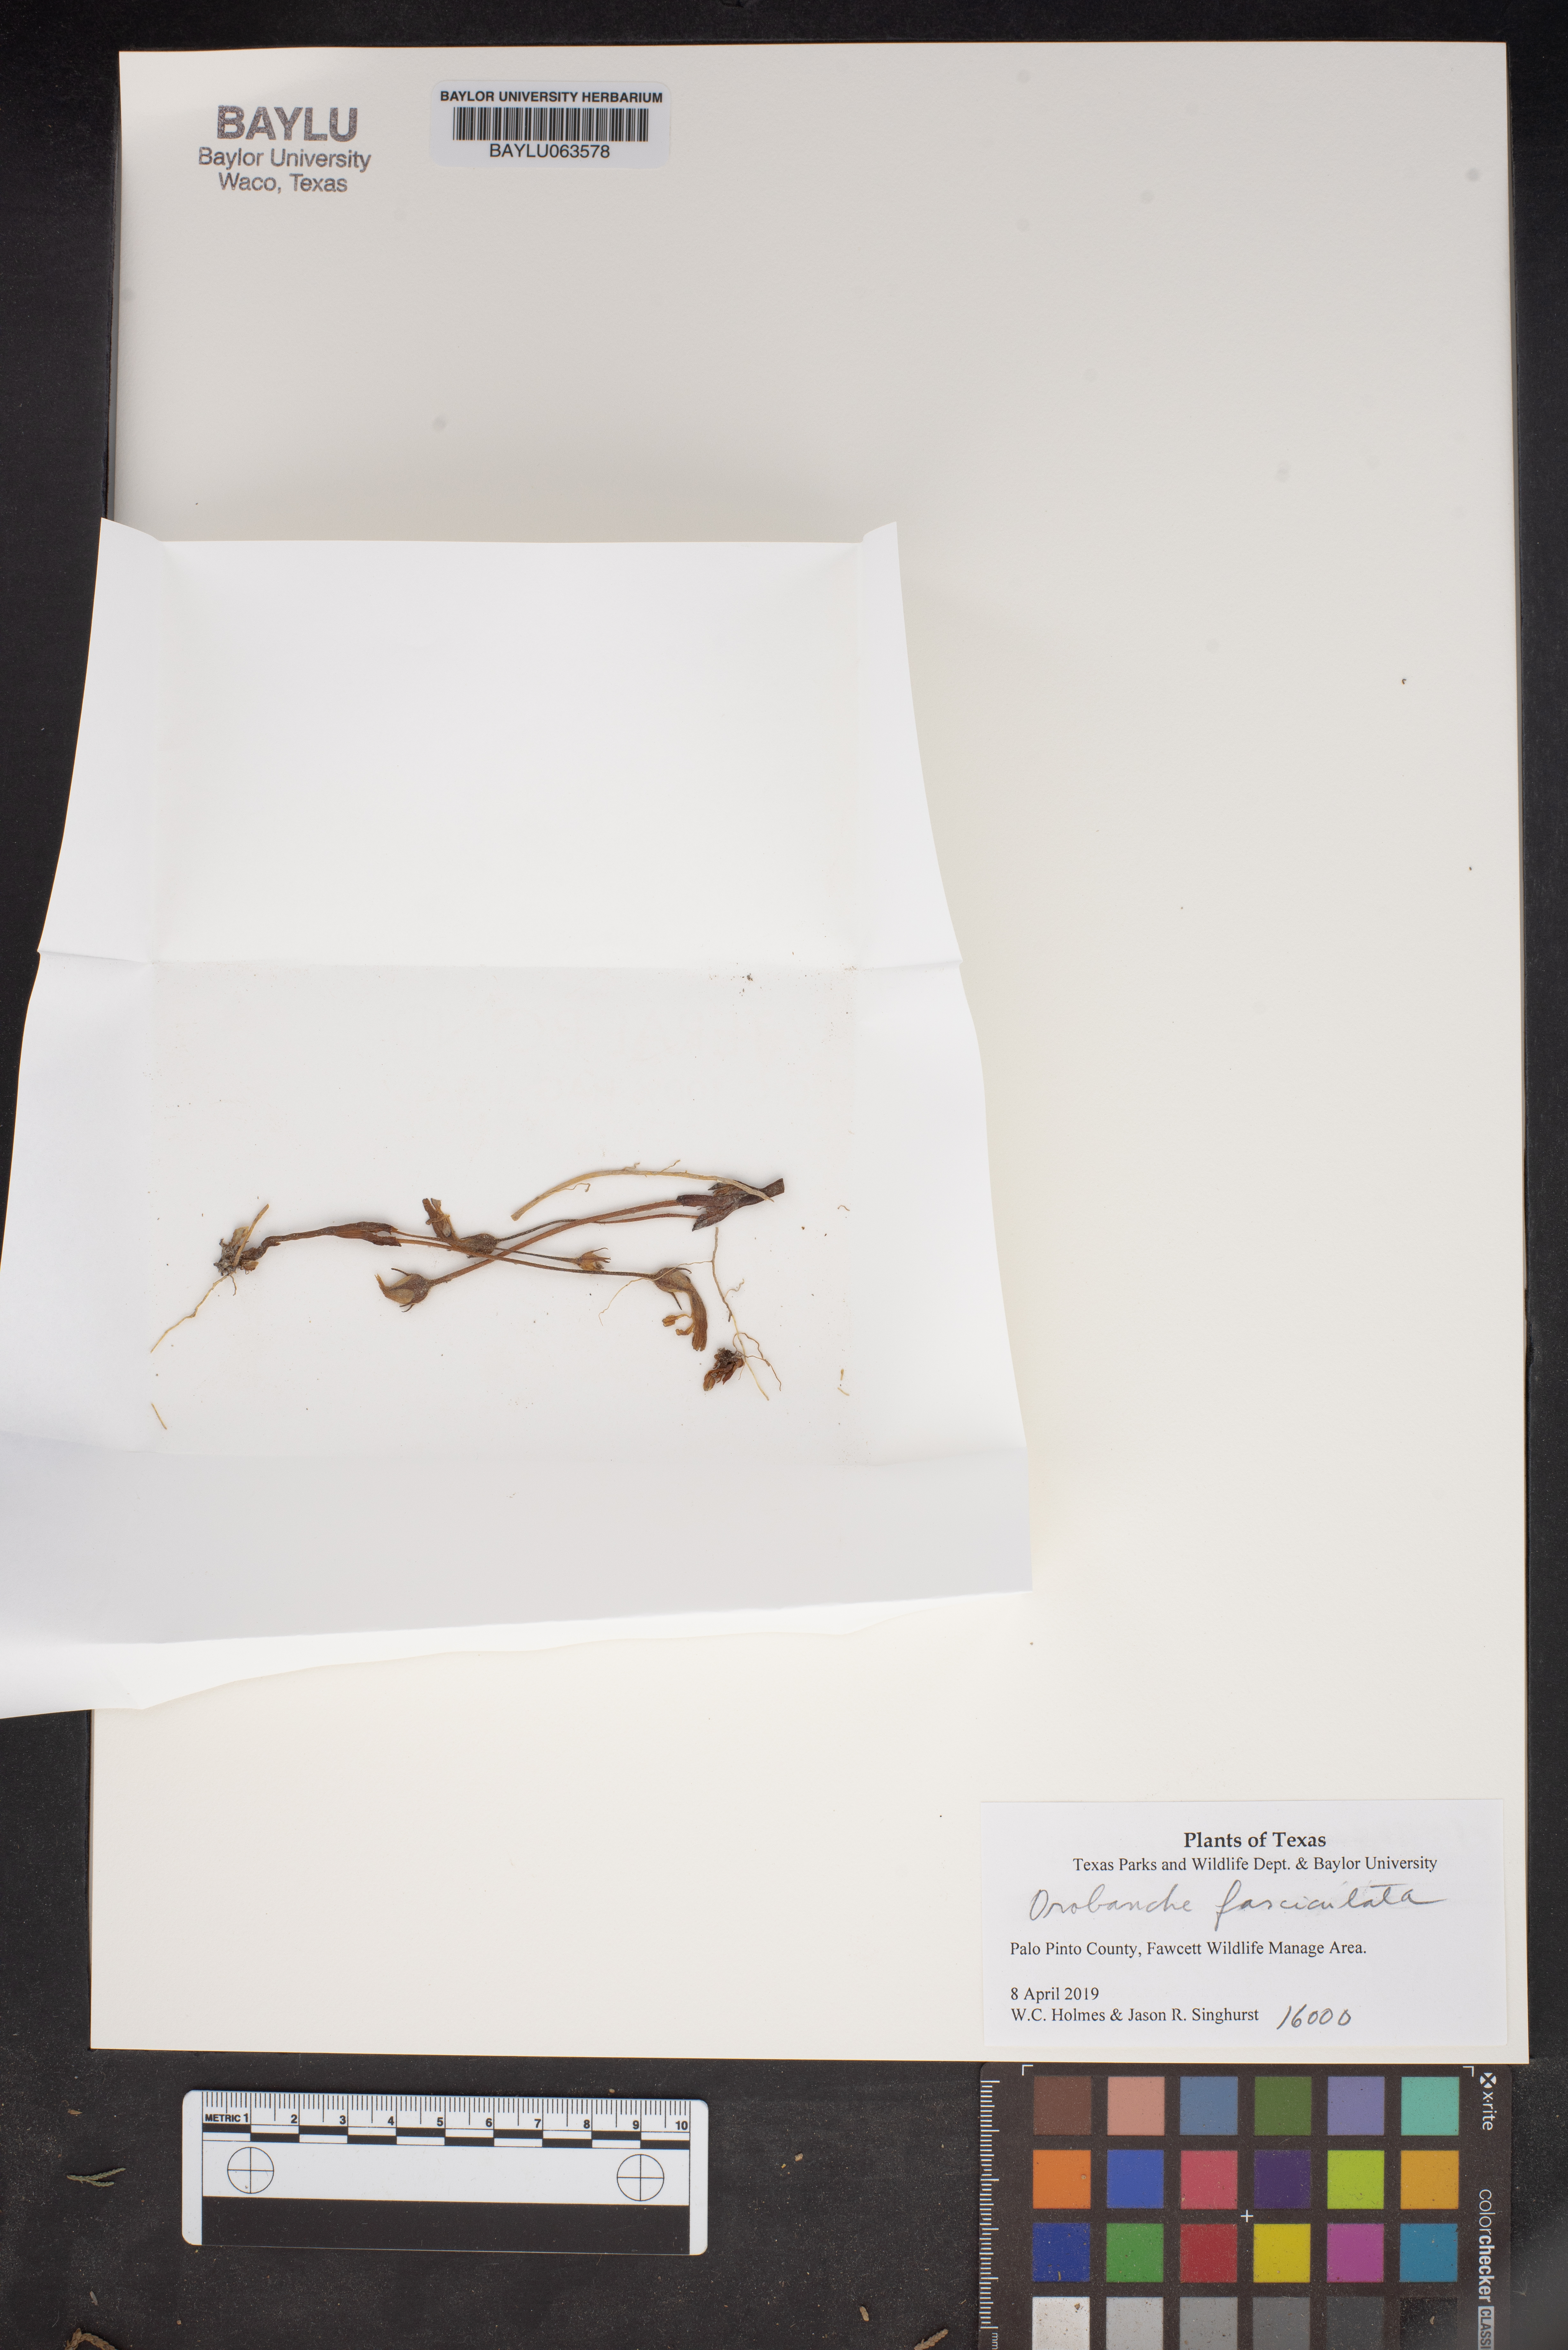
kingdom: Plantae
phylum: Tracheophyta
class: Magnoliopsida
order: Lamiales
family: Orobanchaceae
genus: Aphyllon
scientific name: Aphyllon fasciculatum
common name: Clustered broomrape
